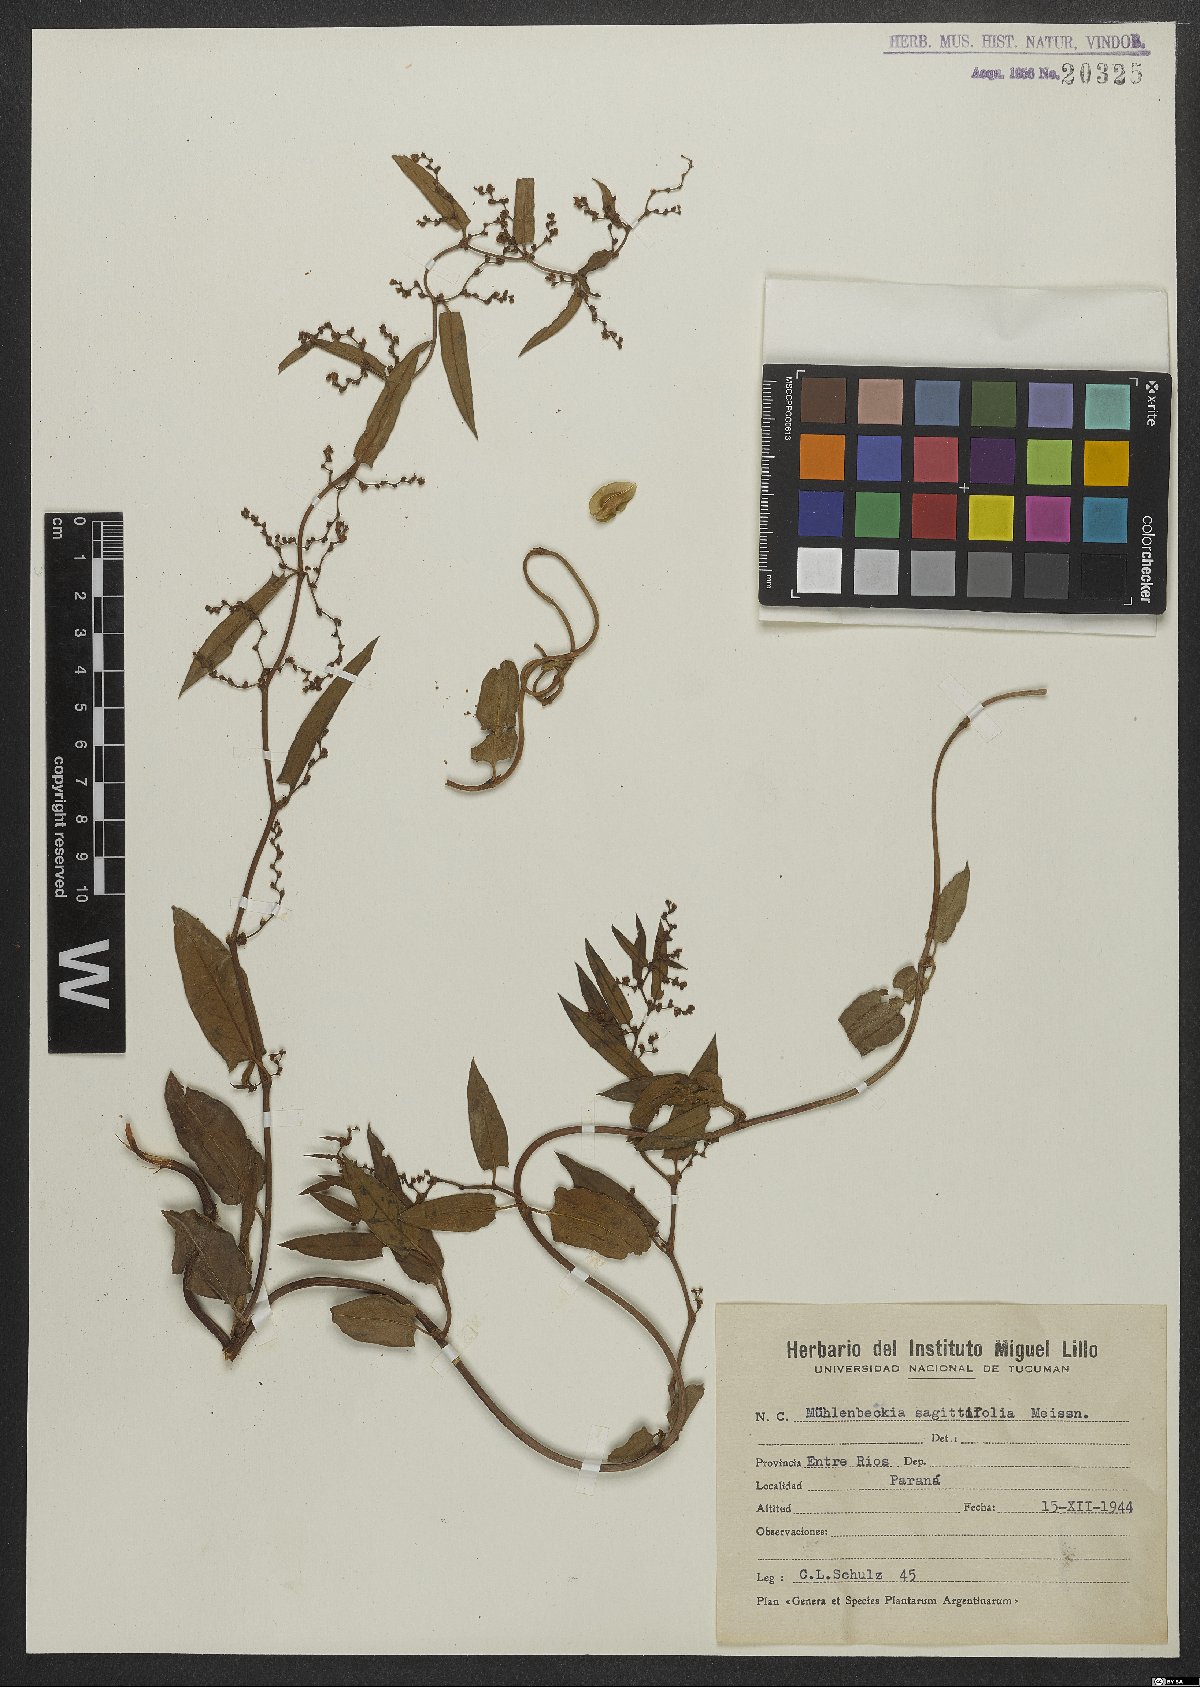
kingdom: Plantae
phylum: Tracheophyta
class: Magnoliopsida
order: Caryophyllales
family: Polygonaceae
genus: Muehlenbeckia
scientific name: Muehlenbeckia sagittifolia
